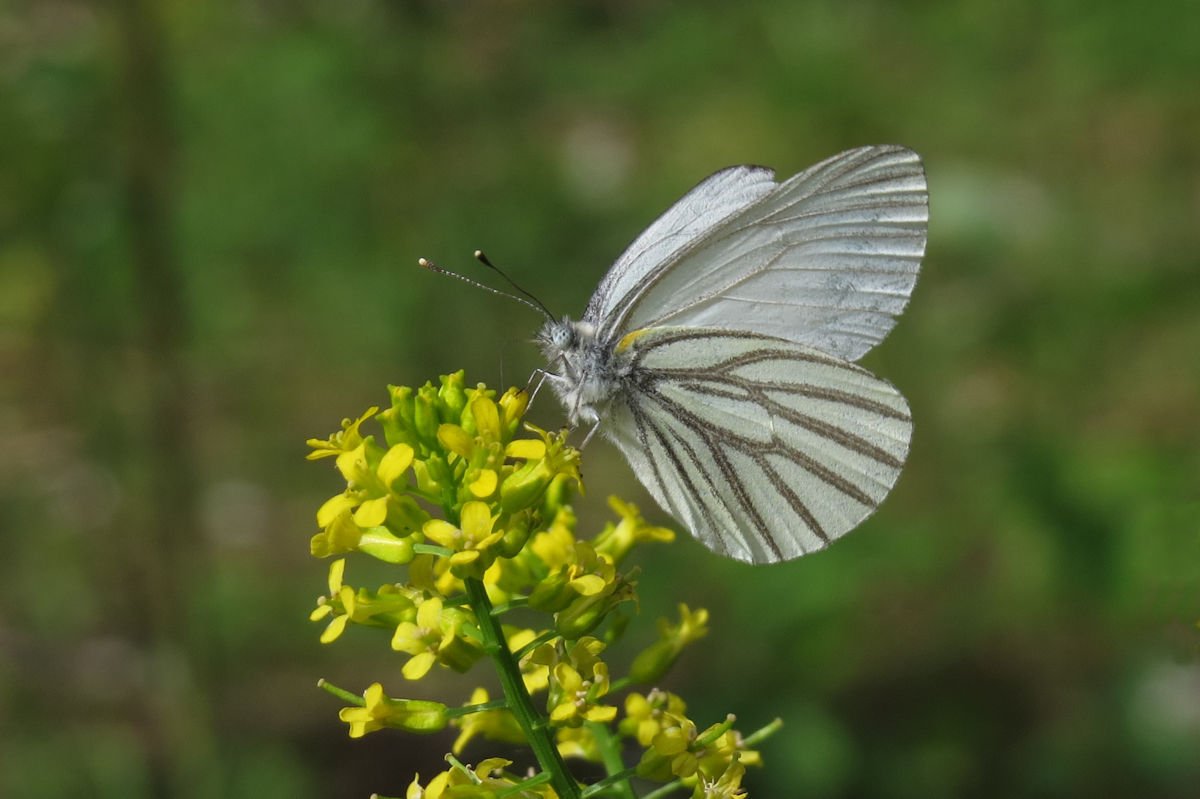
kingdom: Animalia
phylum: Arthropoda
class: Insecta
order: Lepidoptera
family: Pieridae
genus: Pieris
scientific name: Pieris oleracea
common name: Mustard White
